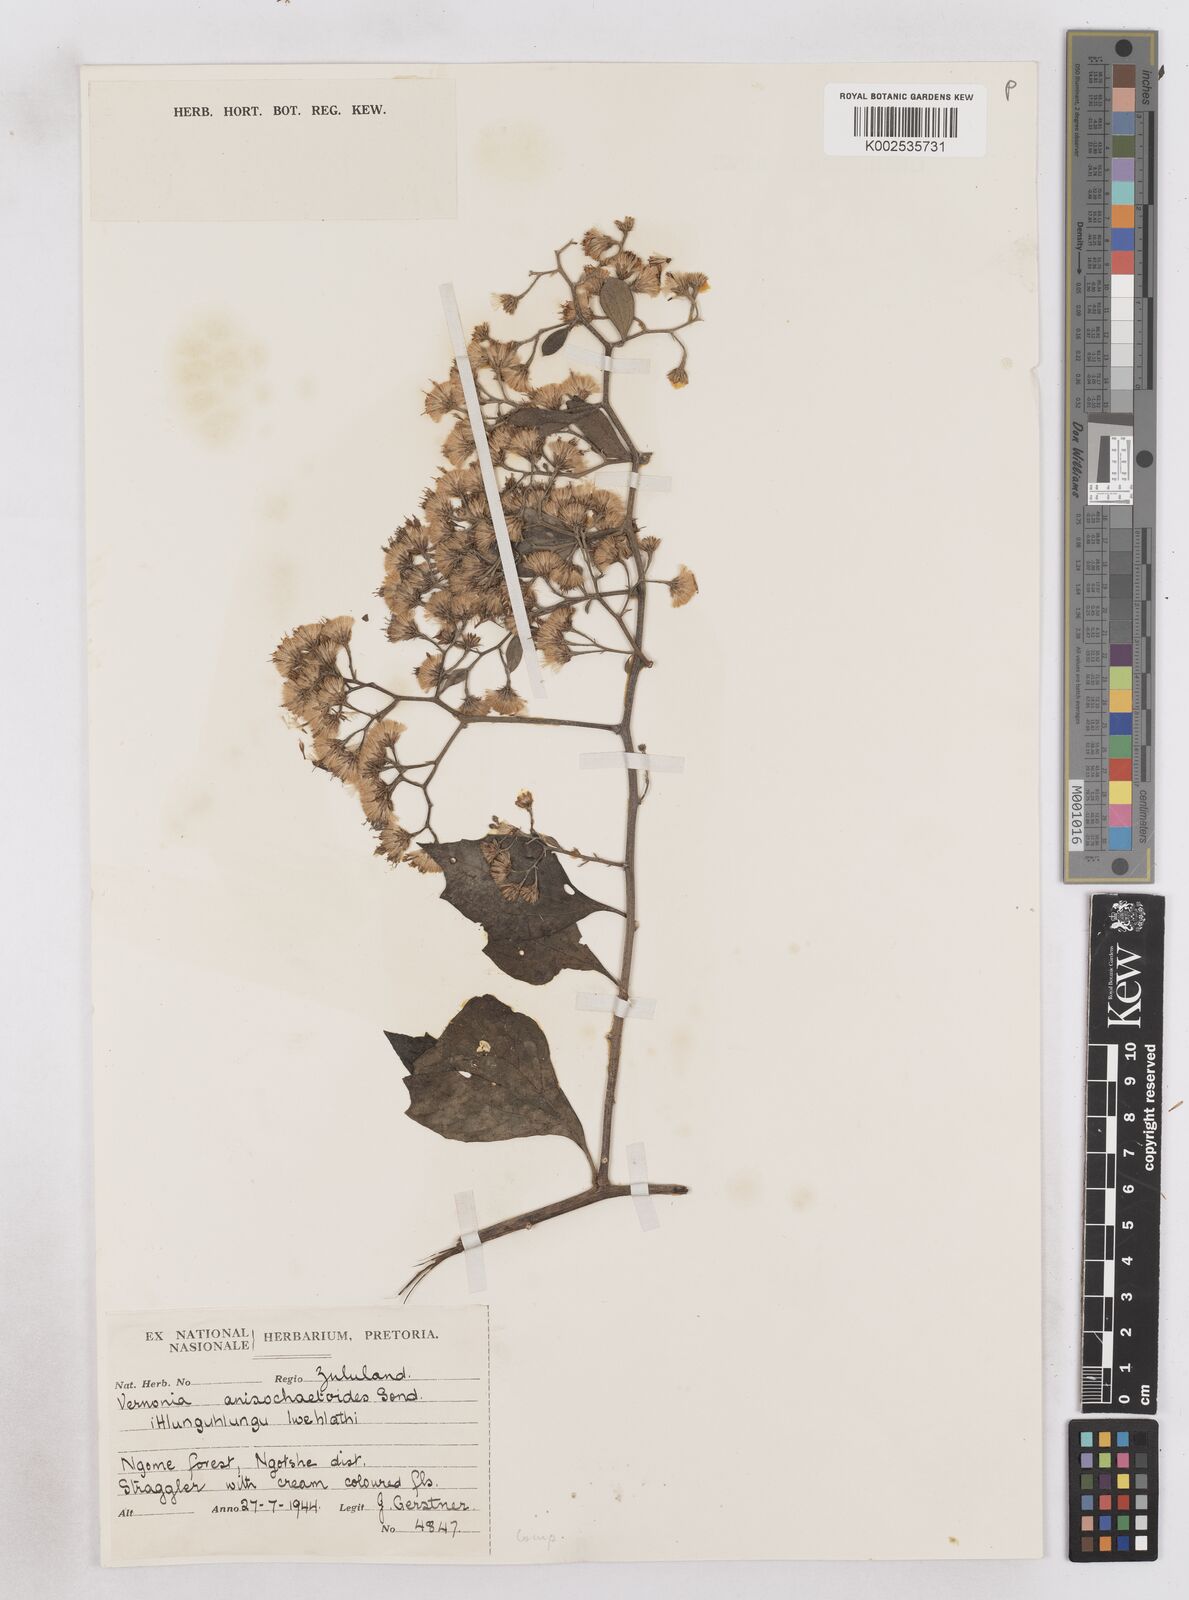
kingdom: Plantae
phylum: Tracheophyta
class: Magnoliopsida
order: Asterales
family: Asteraceae
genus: Distephanus
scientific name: Distephanus anisochaetoides
